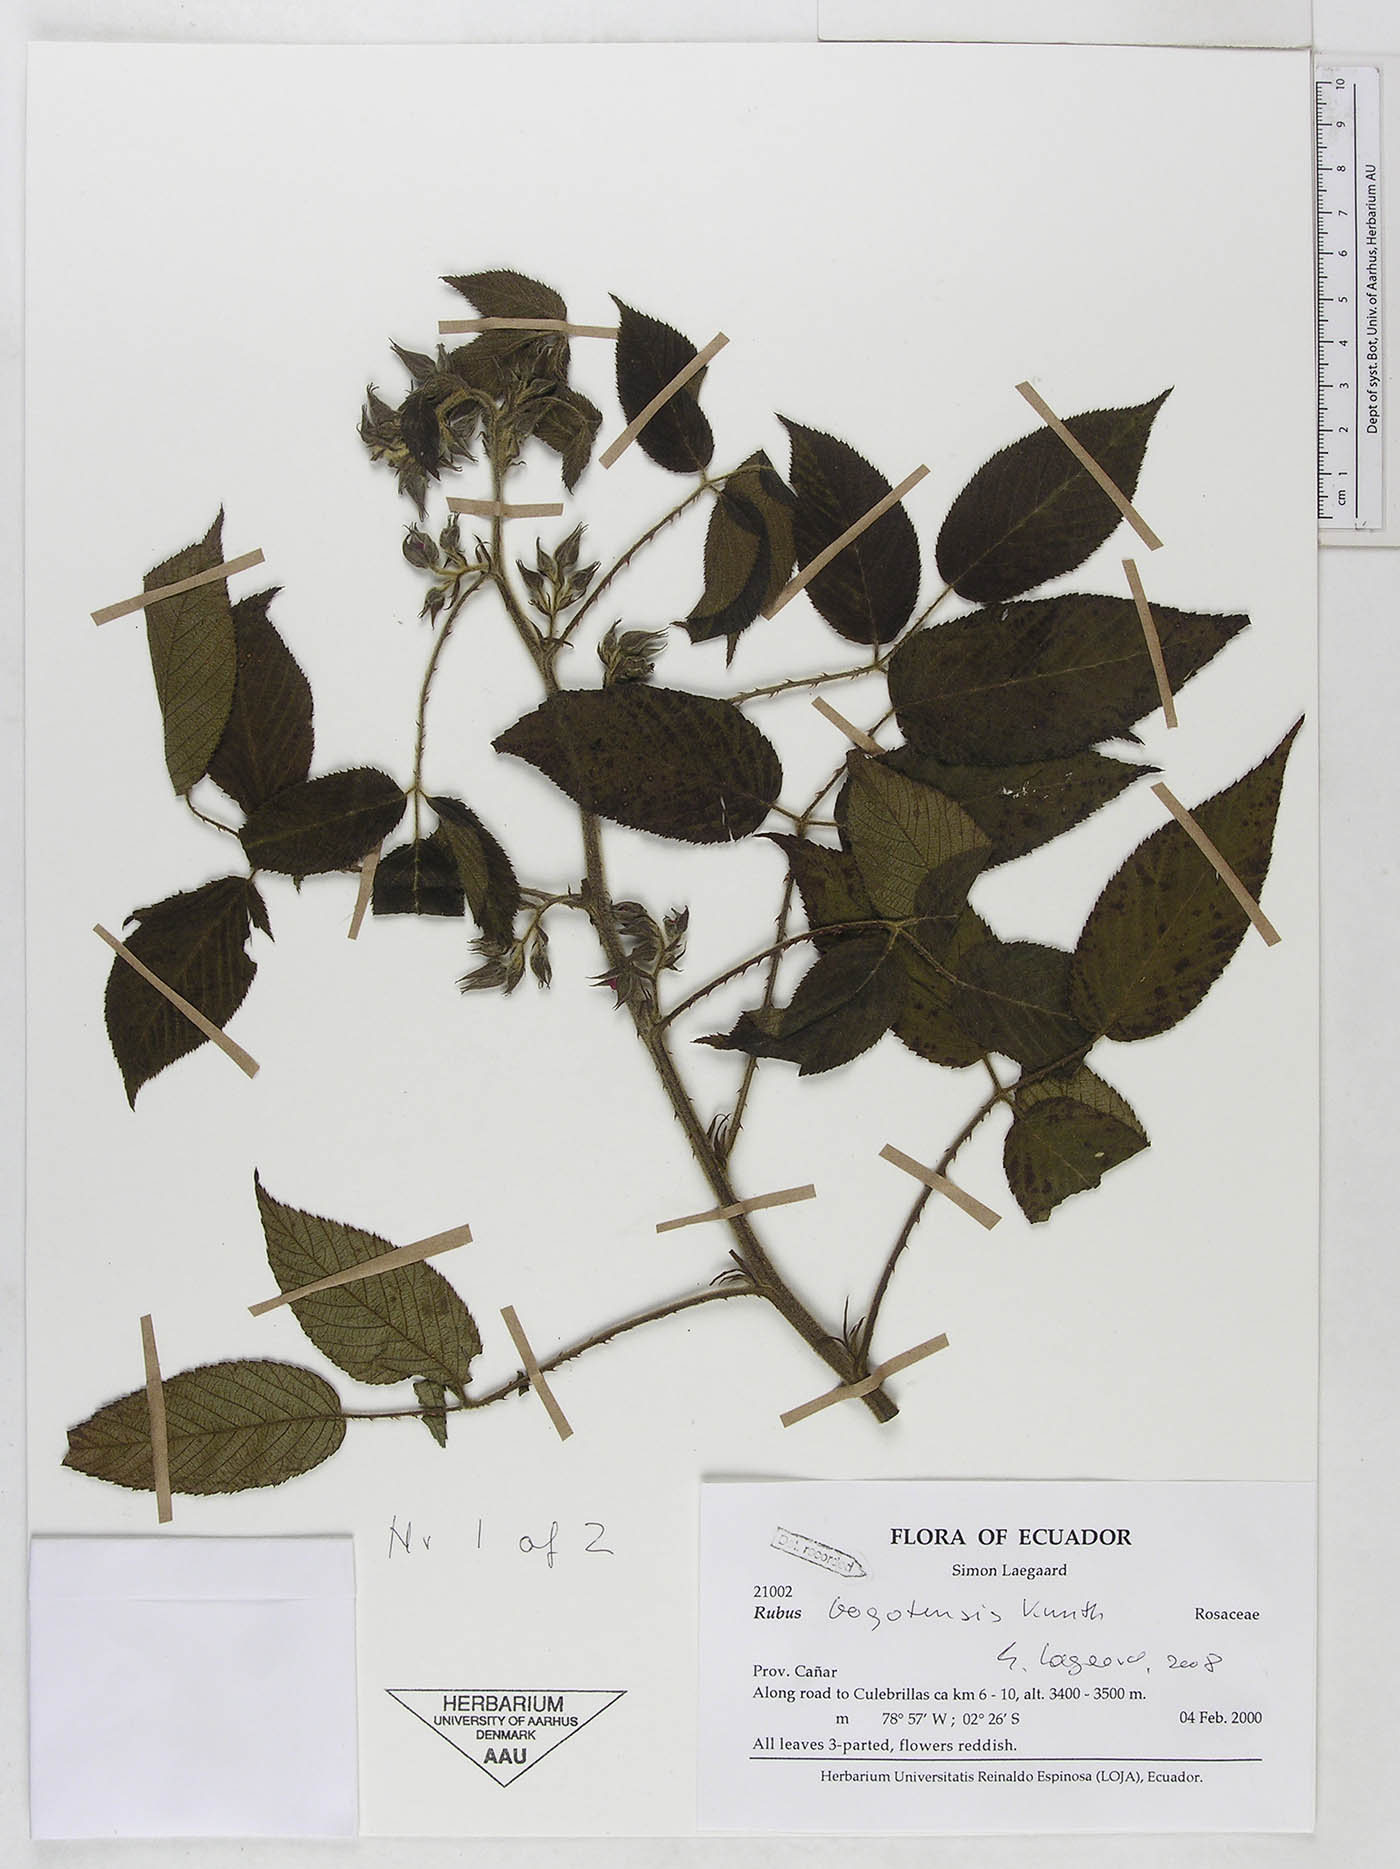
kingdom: Plantae
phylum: Tracheophyta
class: Magnoliopsida
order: Rosales
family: Rosaceae
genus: Rubus
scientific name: Rubus bogotensis
